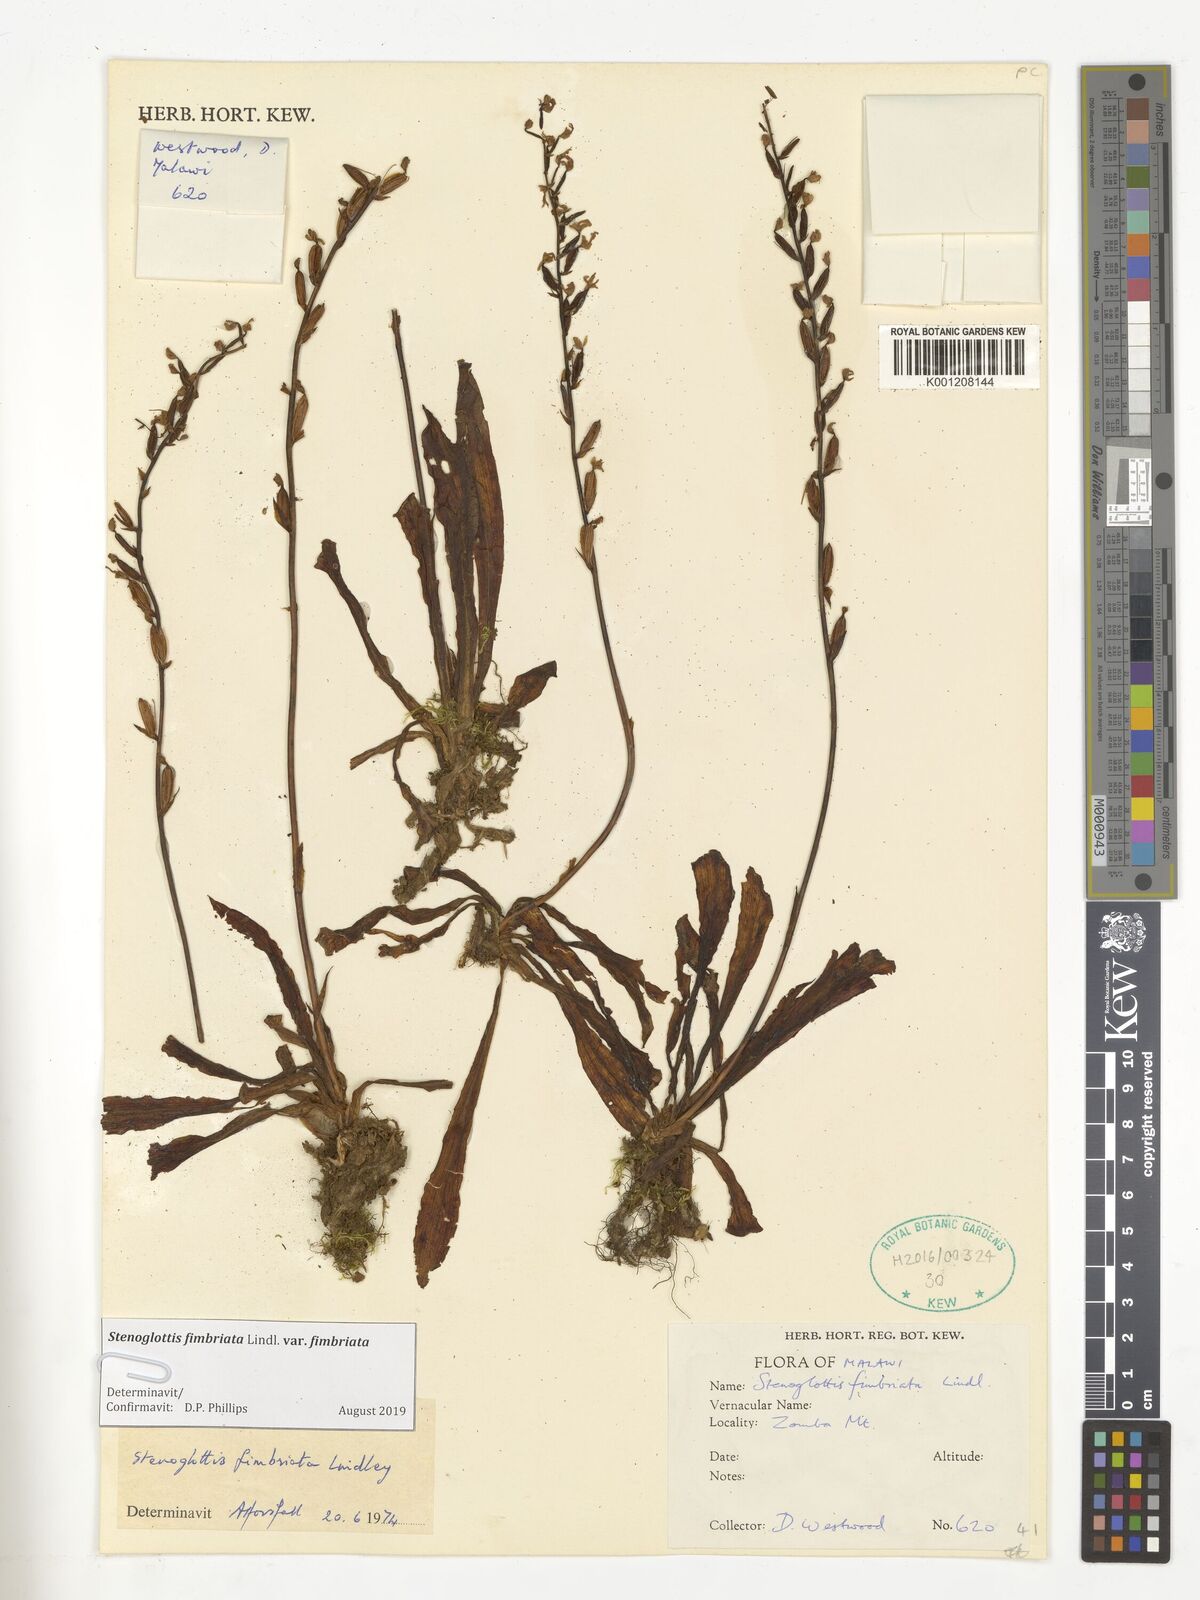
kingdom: Plantae
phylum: Tracheophyta
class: Liliopsida
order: Asparagales
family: Orchidaceae
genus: Stenoglottis
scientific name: Stenoglottis fimbriata
